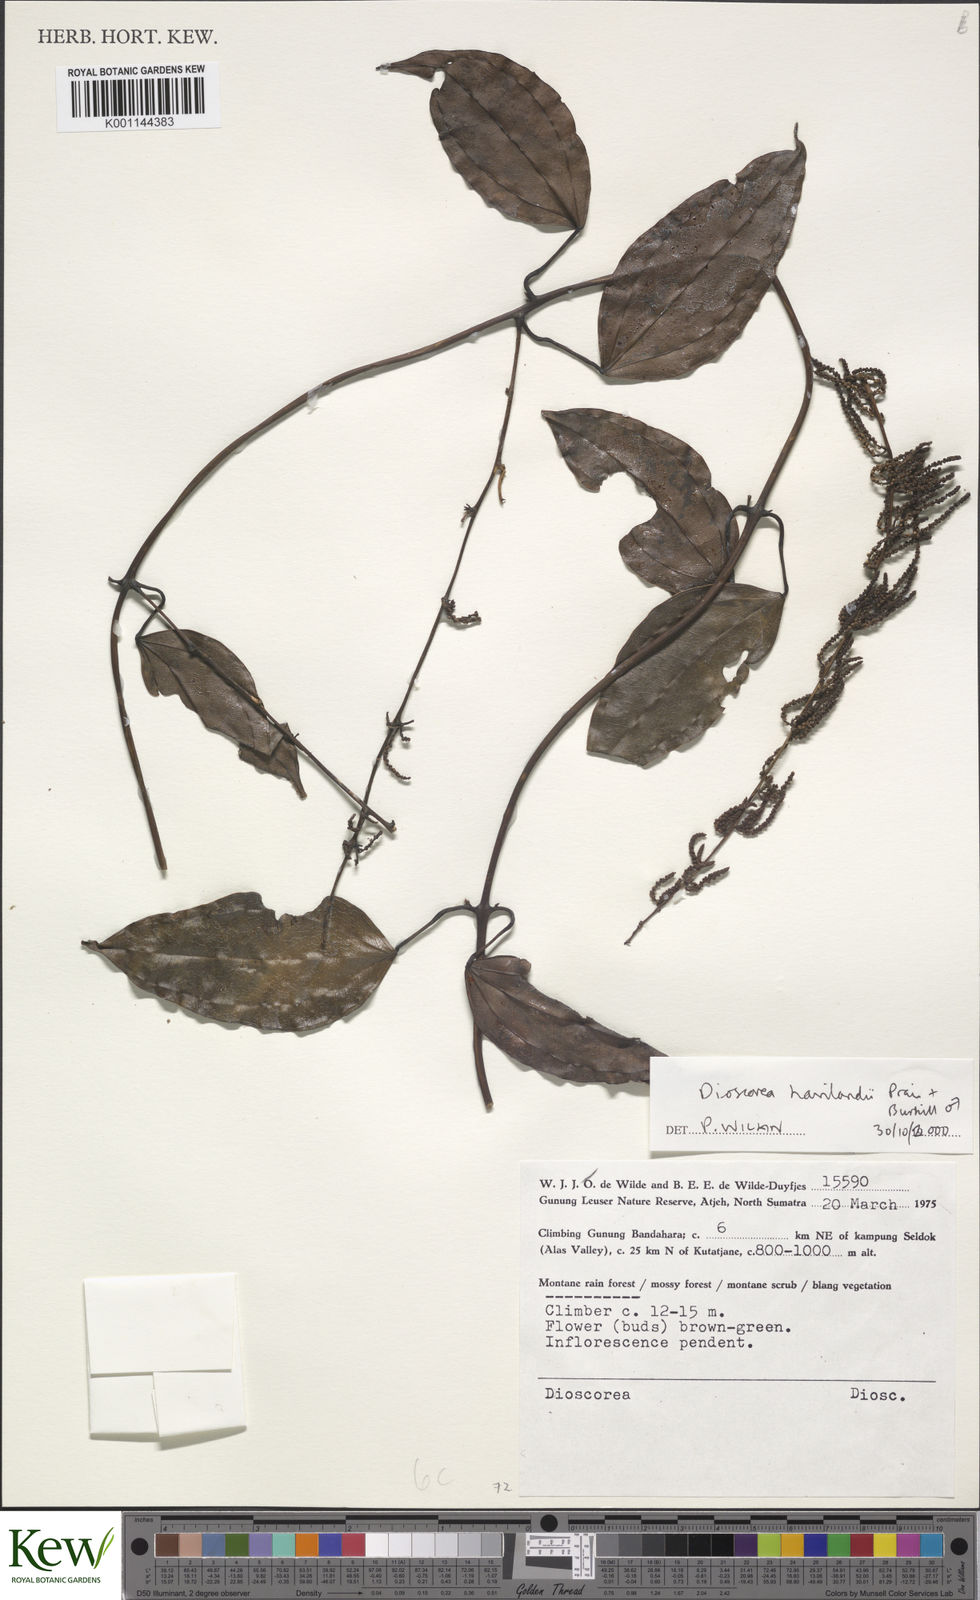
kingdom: Plantae
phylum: Tracheophyta
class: Liliopsida
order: Dioscoreales
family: Dioscoreaceae
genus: Dioscorea
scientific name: Dioscorea havilandii
